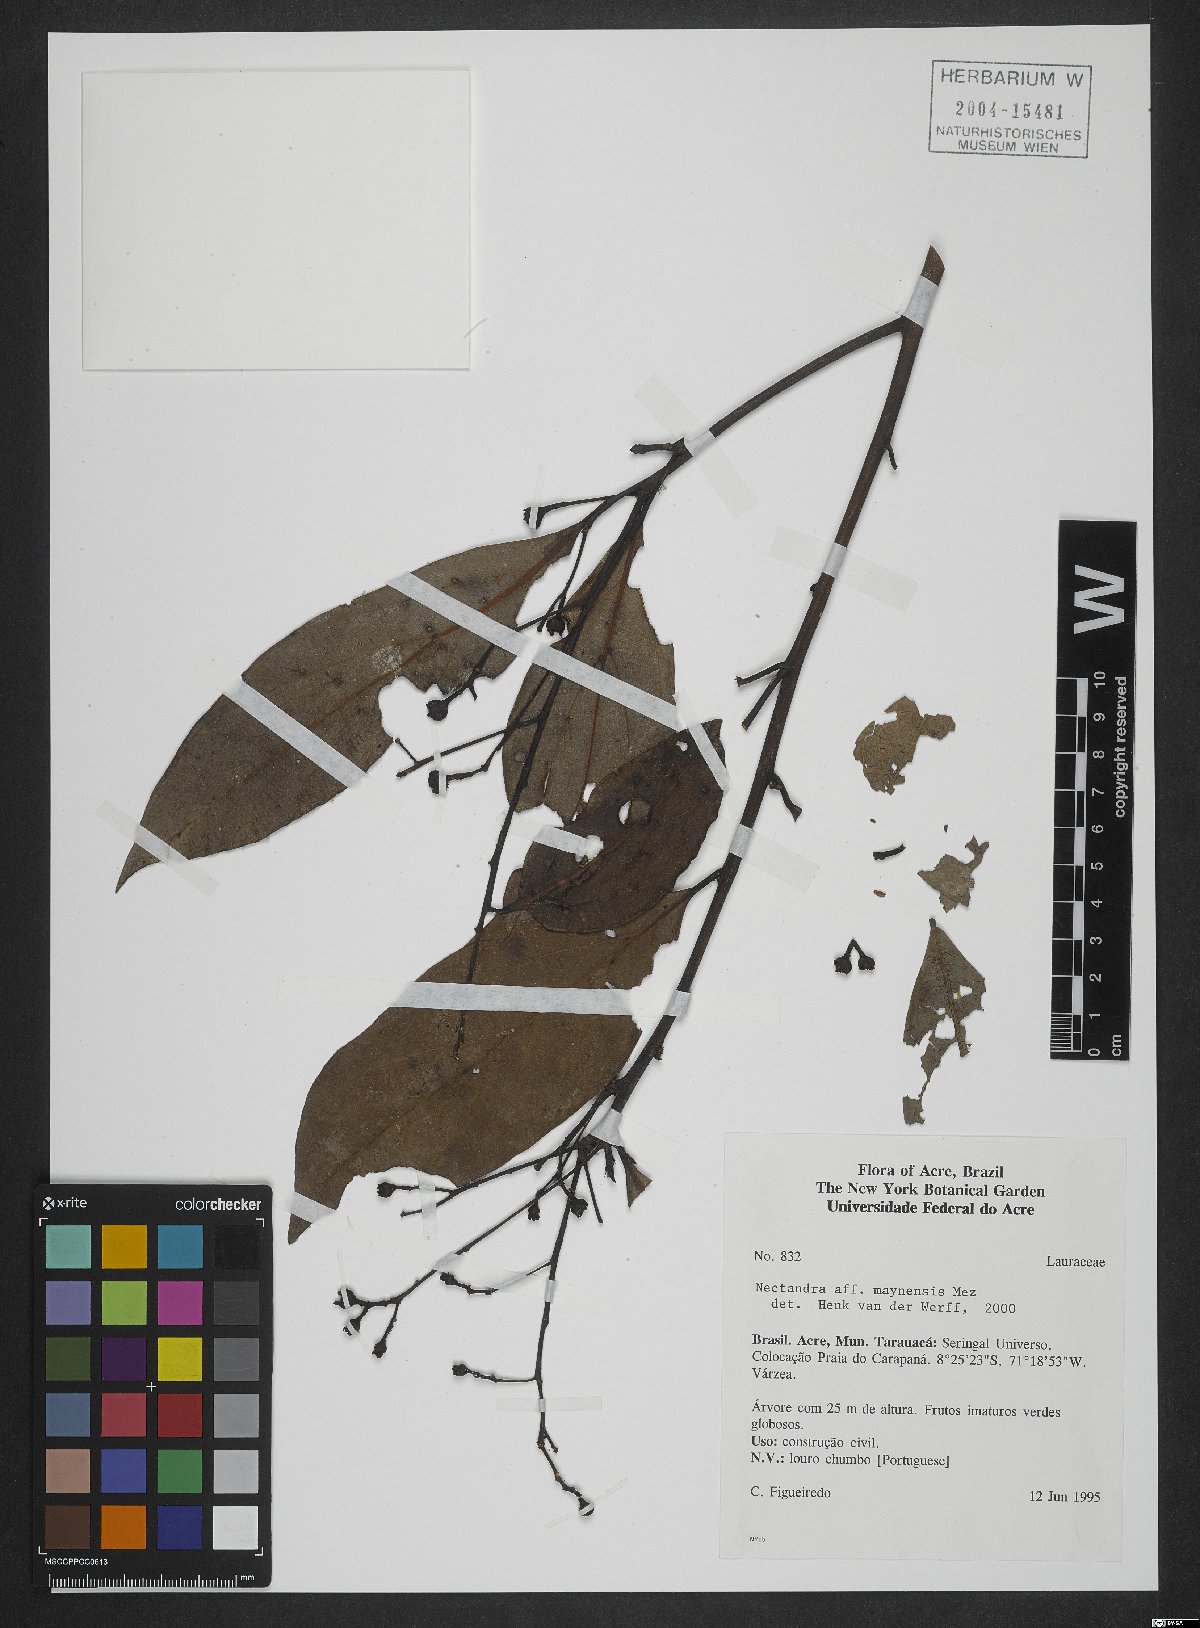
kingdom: Plantae
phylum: Tracheophyta
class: Magnoliopsida
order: Laurales
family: Lauraceae
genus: Nectandra
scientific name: Nectandra maynensis
